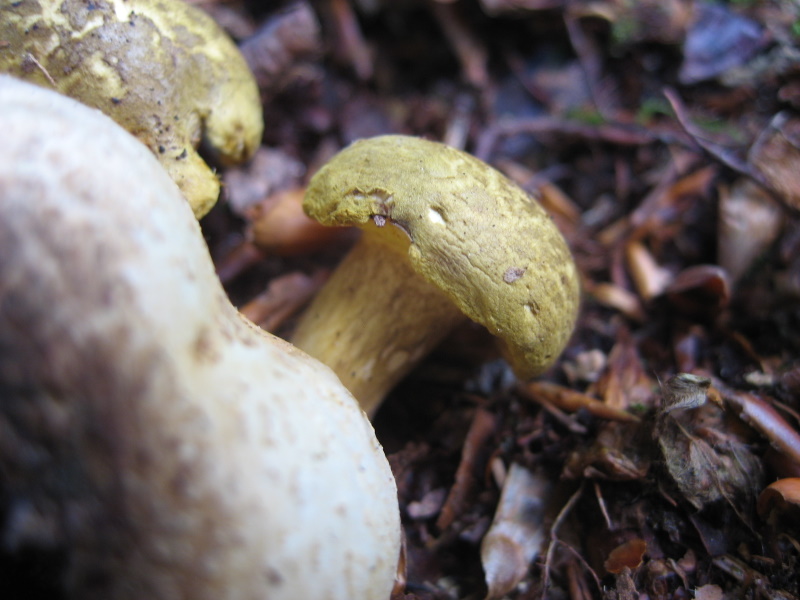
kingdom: Fungi
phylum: Basidiomycota
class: Agaricomycetes
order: Boletales
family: Boletaceae
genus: Pseudoboletus
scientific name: Pseudoboletus parasiticus
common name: snyltende rørhat
